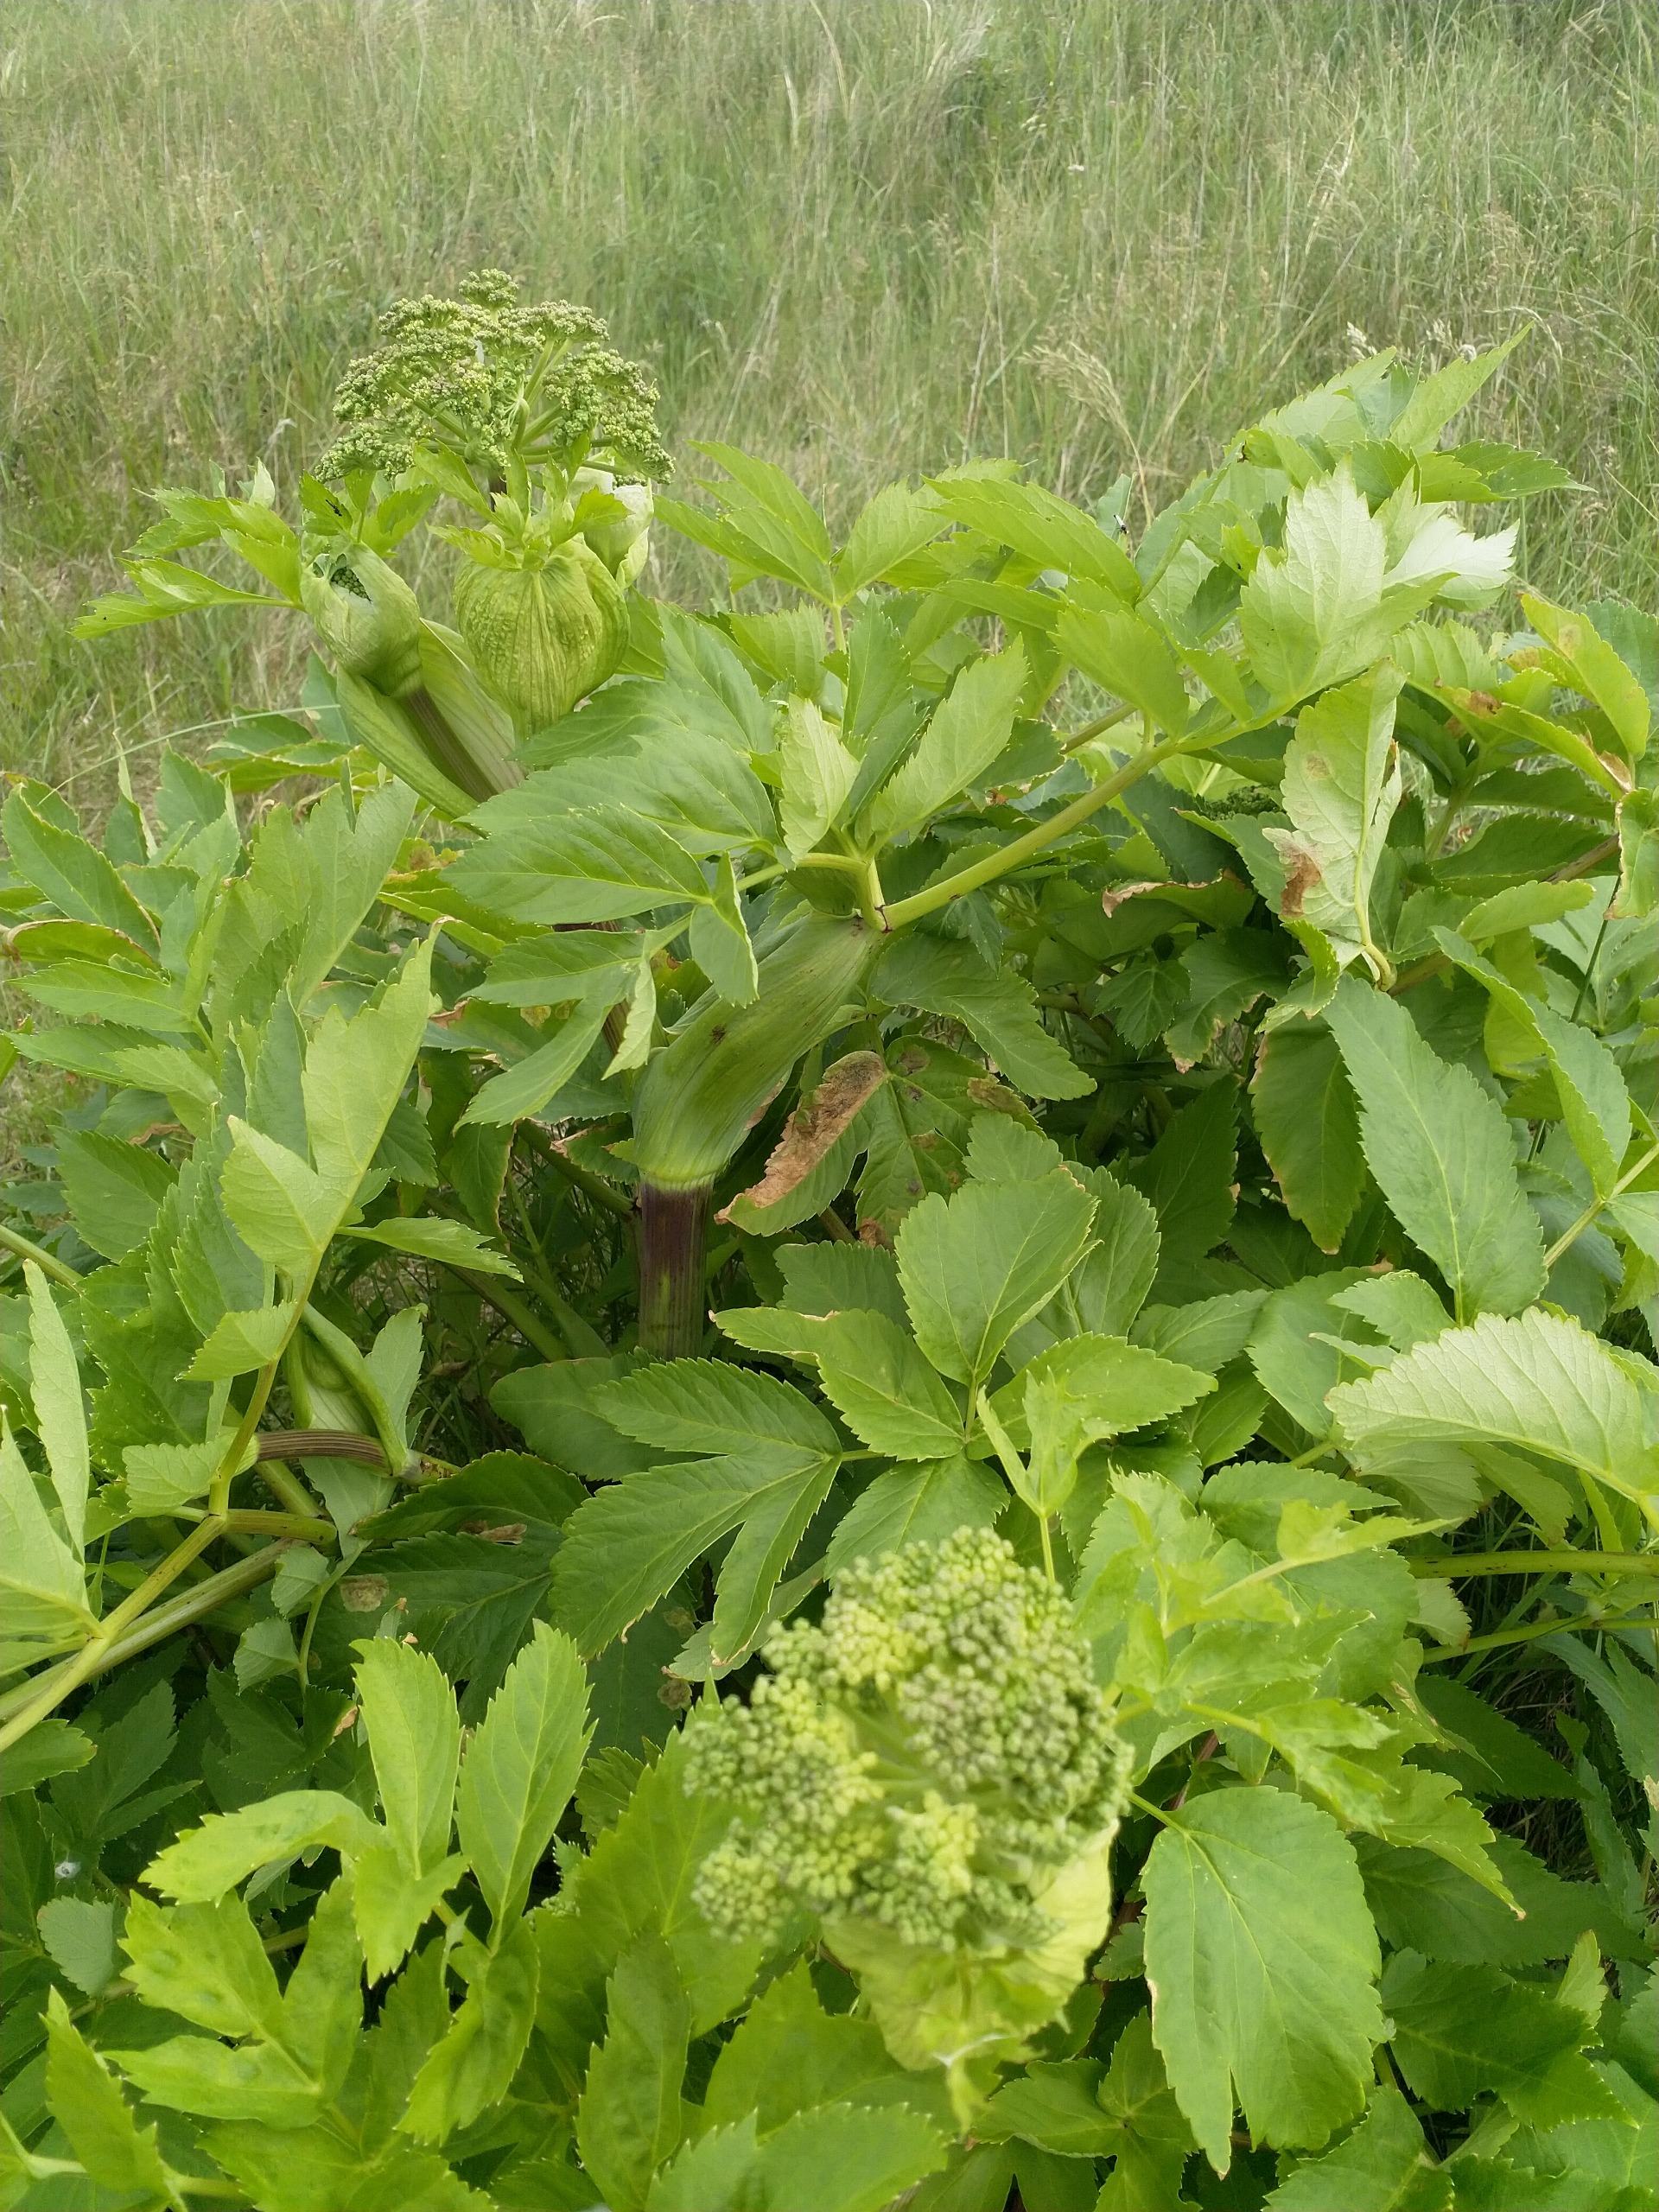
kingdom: Plantae
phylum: Tracheophyta
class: Magnoliopsida
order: Apiales
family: Apiaceae
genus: Angelica
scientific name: Angelica archangelica
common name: Fjeld-kvan
